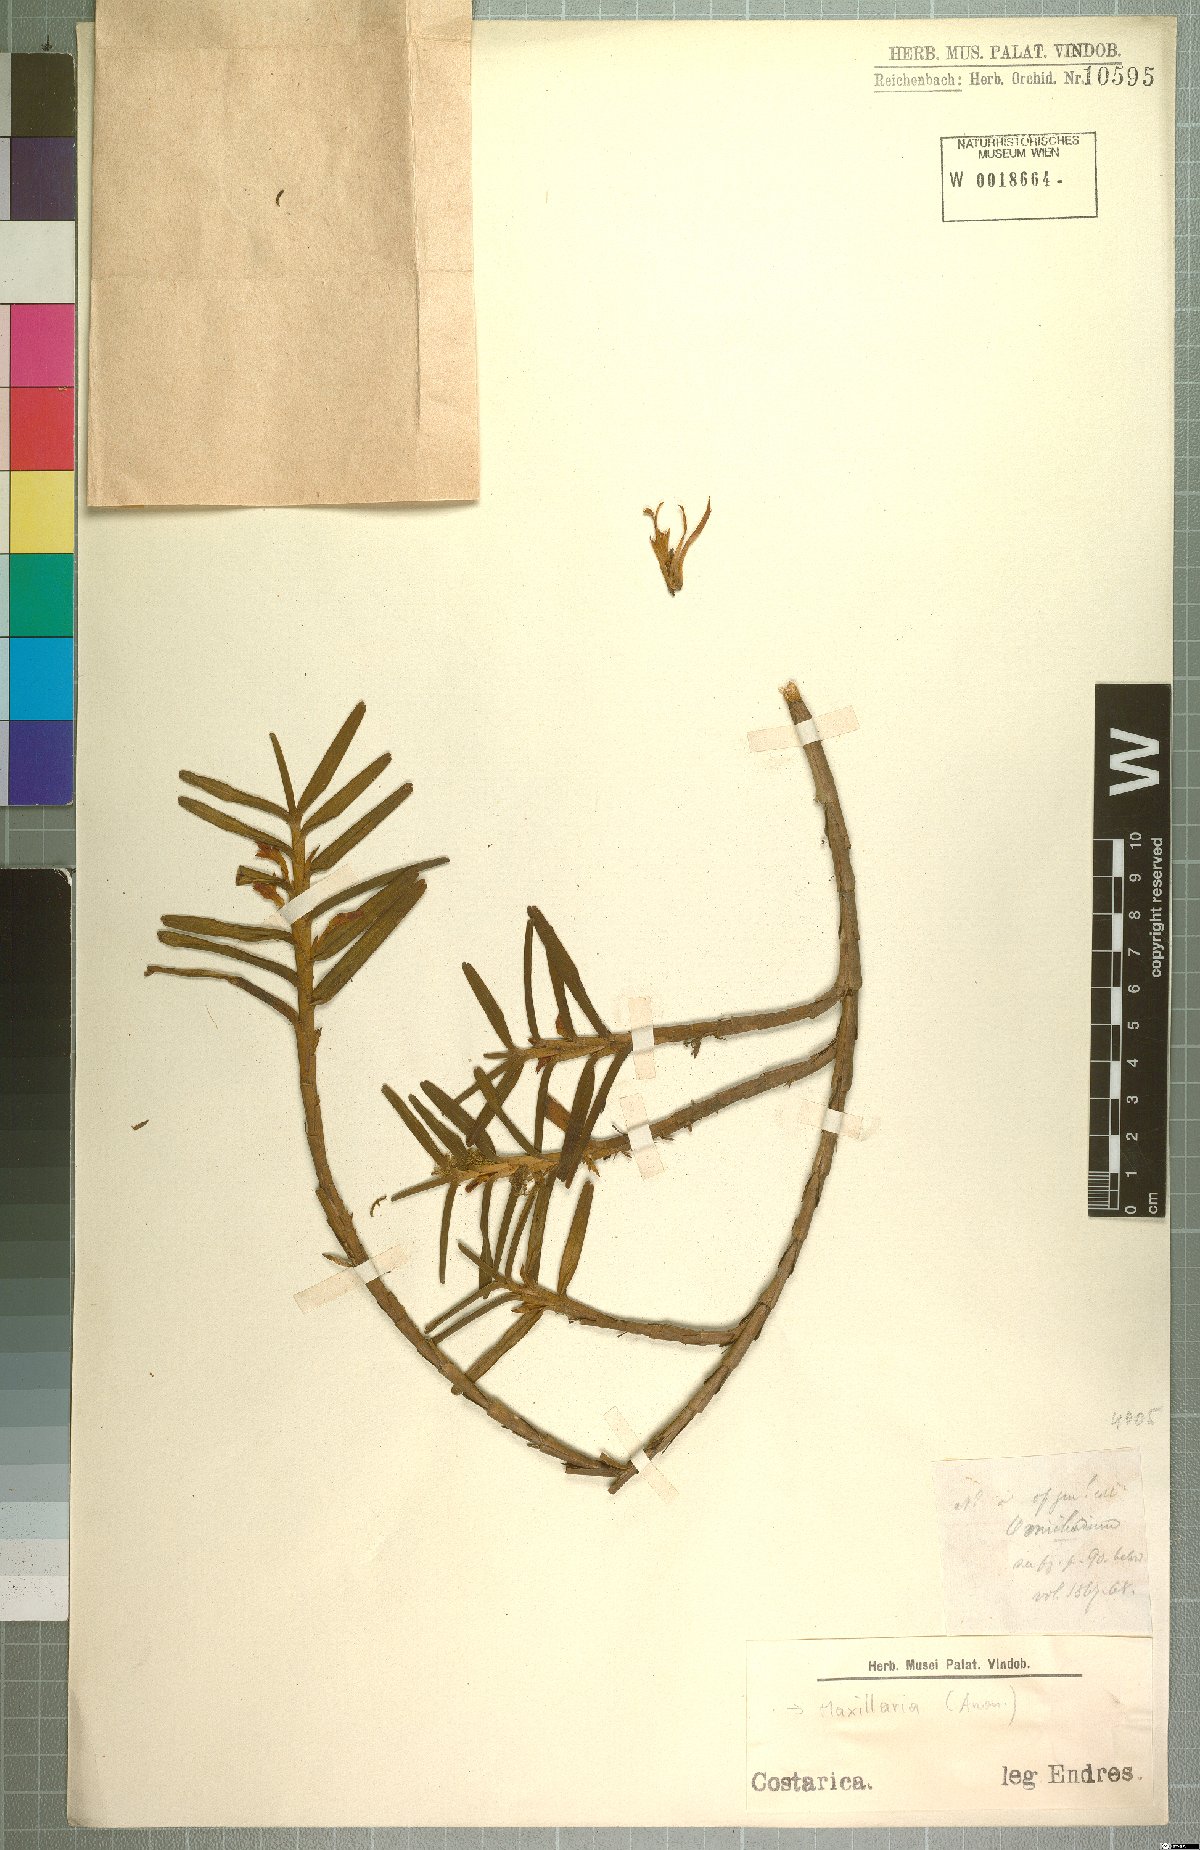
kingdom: Plantae
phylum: Tracheophyta
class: Liliopsida
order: Asparagales
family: Orchidaceae
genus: Maxillaria
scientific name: Maxillaria
